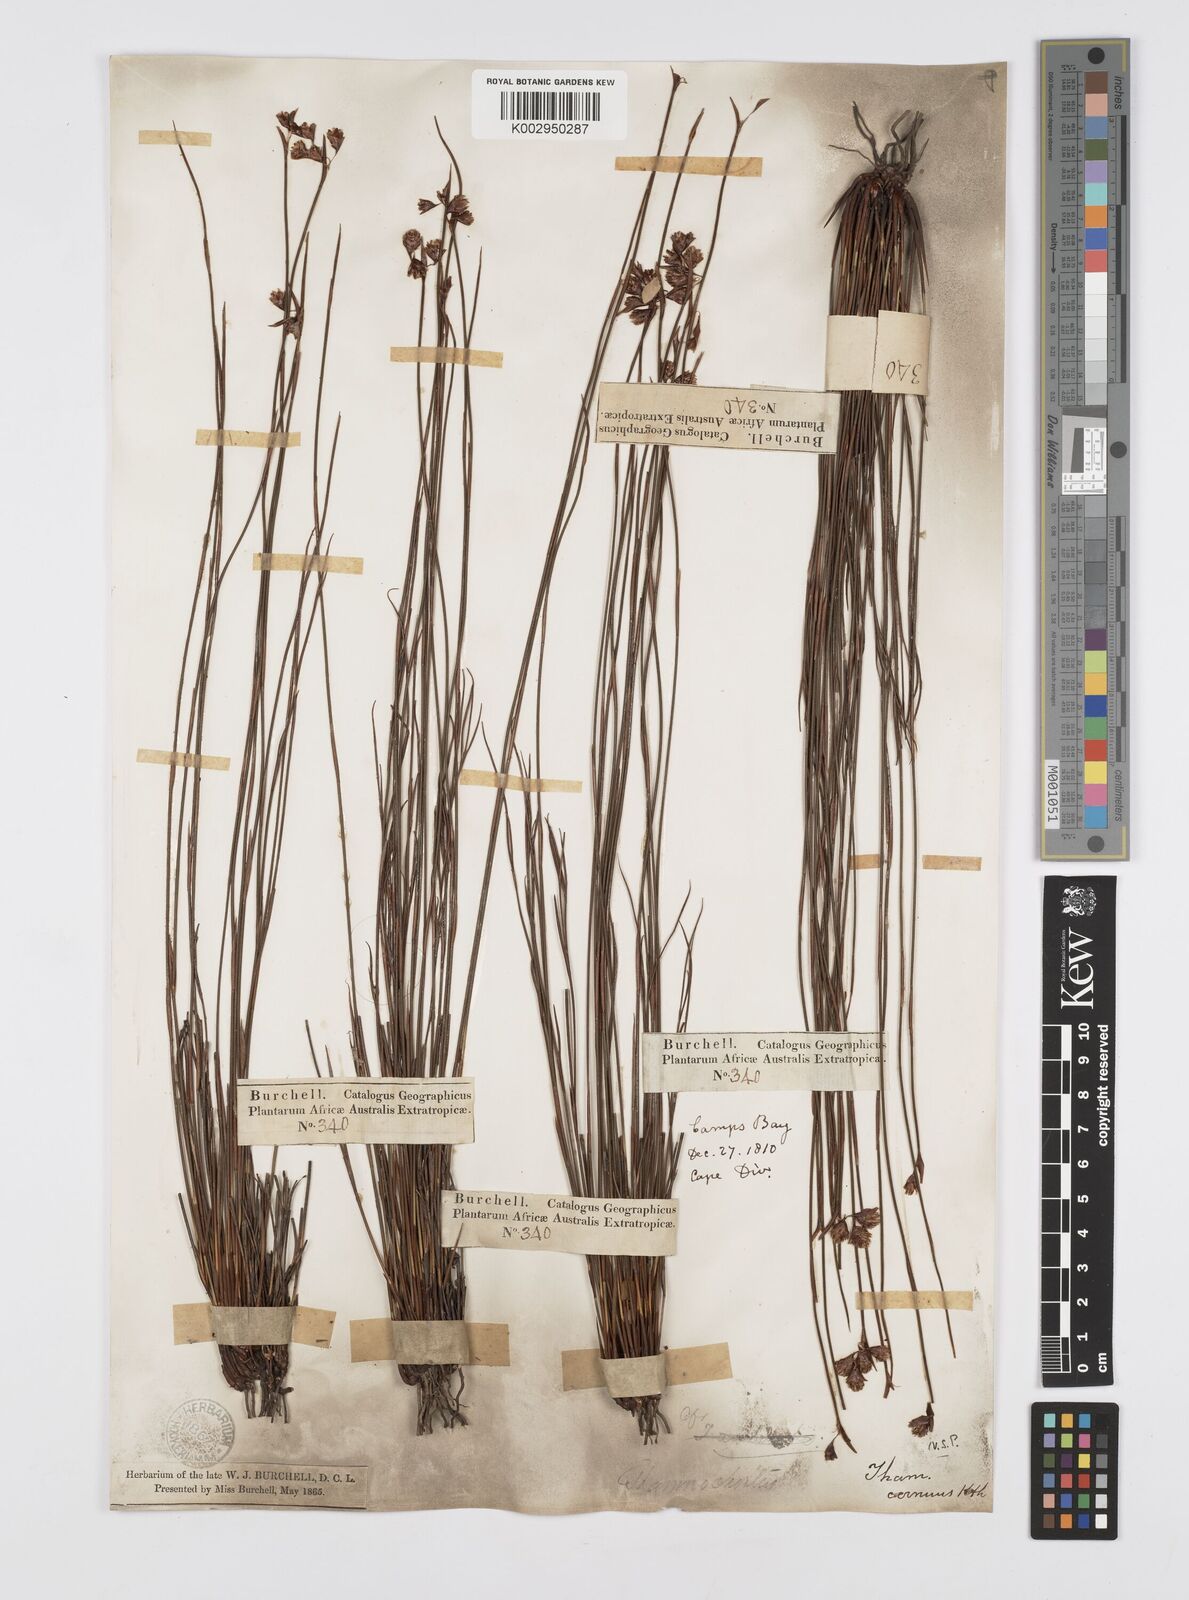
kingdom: Plantae
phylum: Tracheophyta
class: Liliopsida
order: Poales
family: Restionaceae
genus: Staberoha
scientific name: Staberoha cernua
